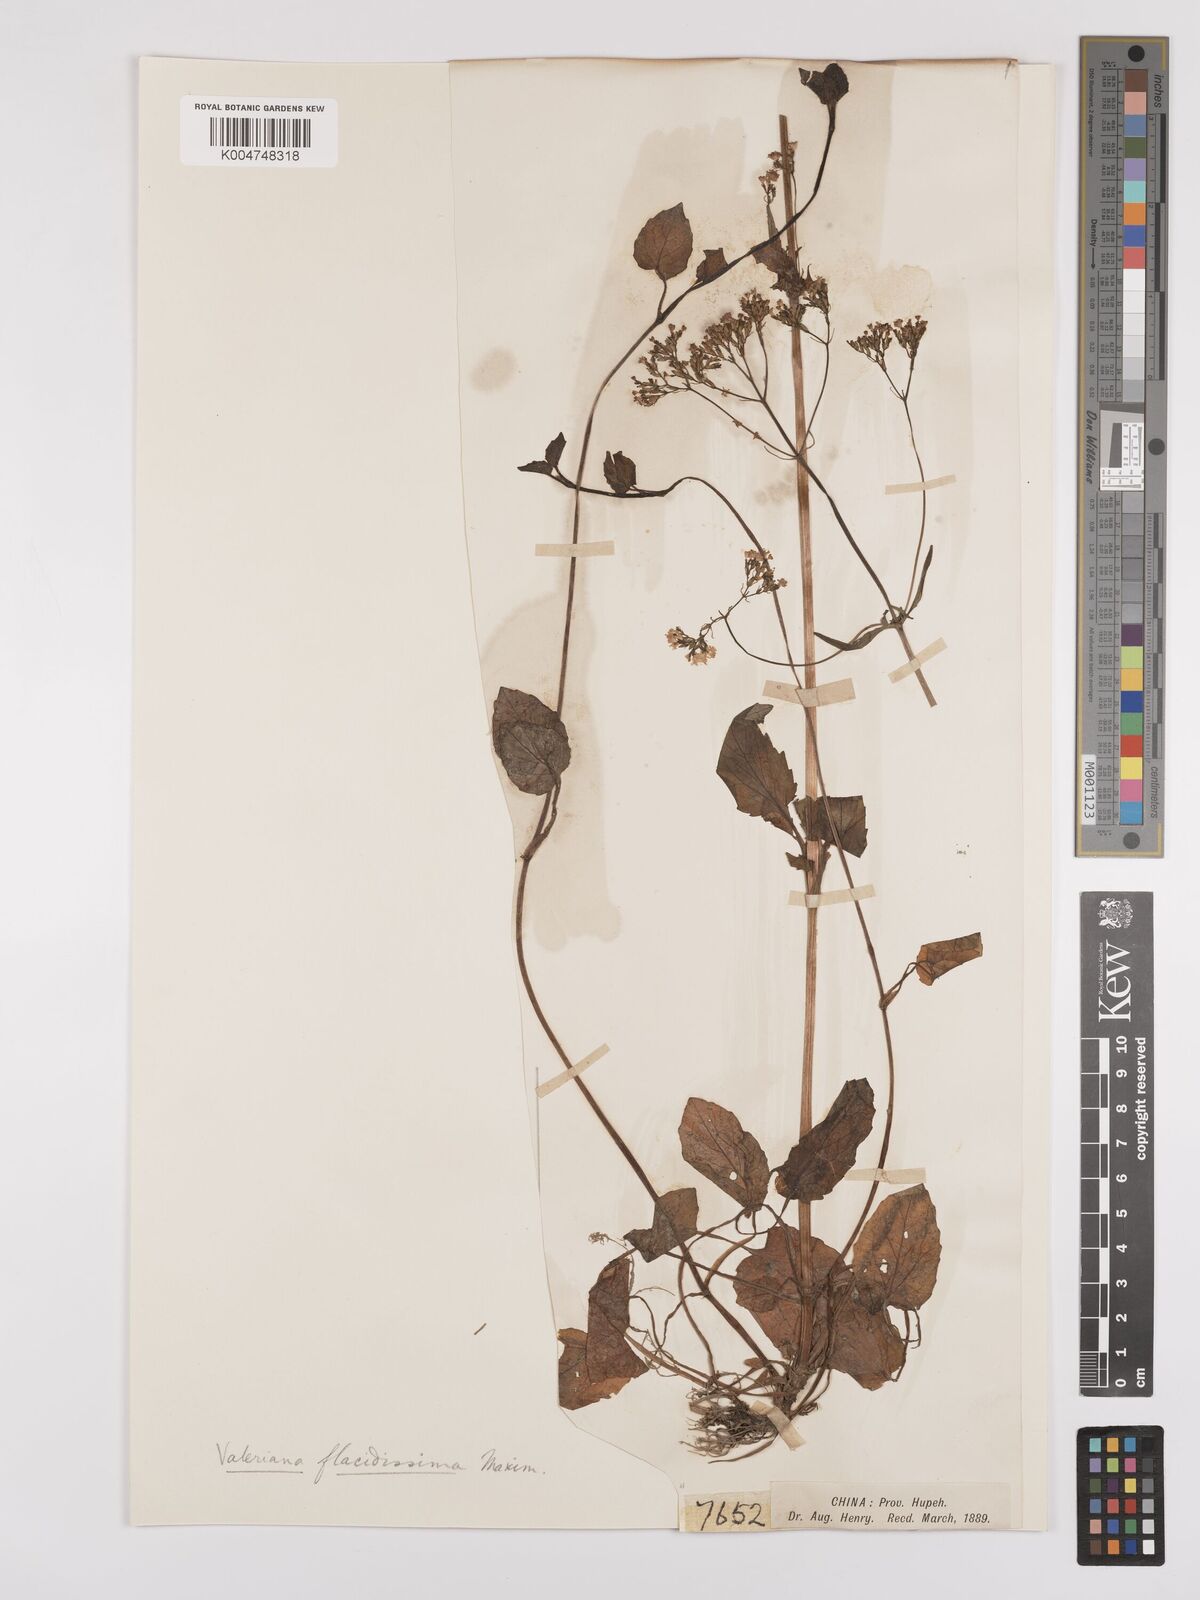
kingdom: Plantae
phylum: Tracheophyta
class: Magnoliopsida
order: Dipsacales
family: Caprifoliaceae
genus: Valeriana
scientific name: Valeriana flaccidissima
